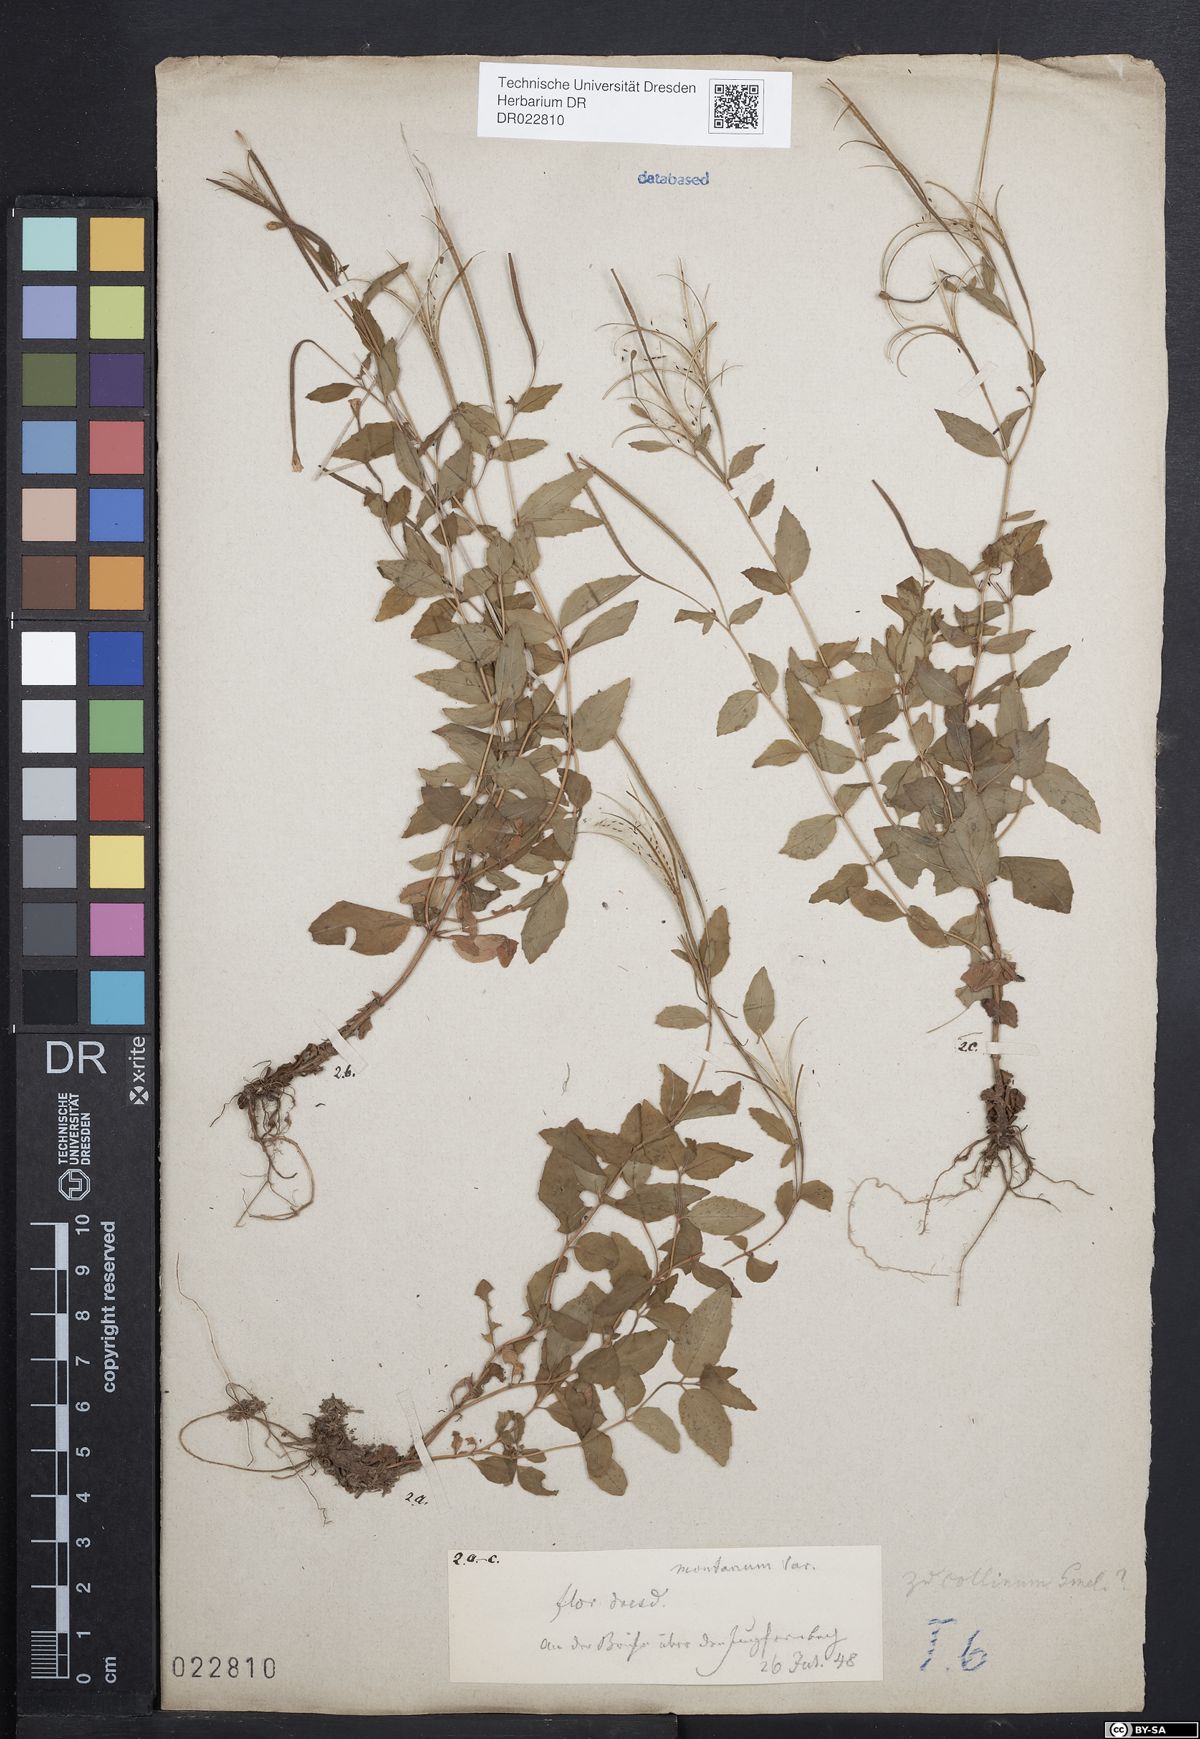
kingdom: Plantae
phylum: Tracheophyta
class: Magnoliopsida
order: Myrtales
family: Onagraceae
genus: Epilobium
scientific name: Epilobium collinum
